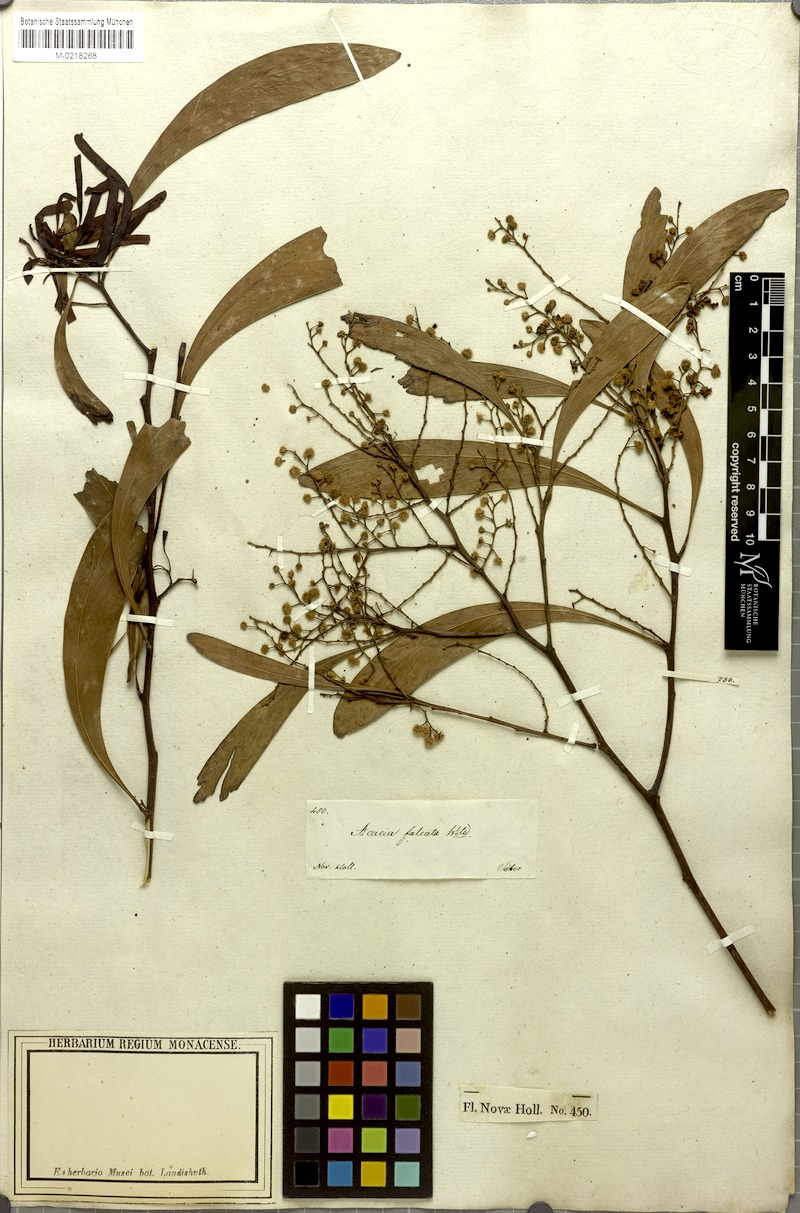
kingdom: Plantae
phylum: Tracheophyta
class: Magnoliopsida
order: Fabales
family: Fabaceae
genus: Acacia
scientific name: Acacia falcata
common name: Burra acacia
